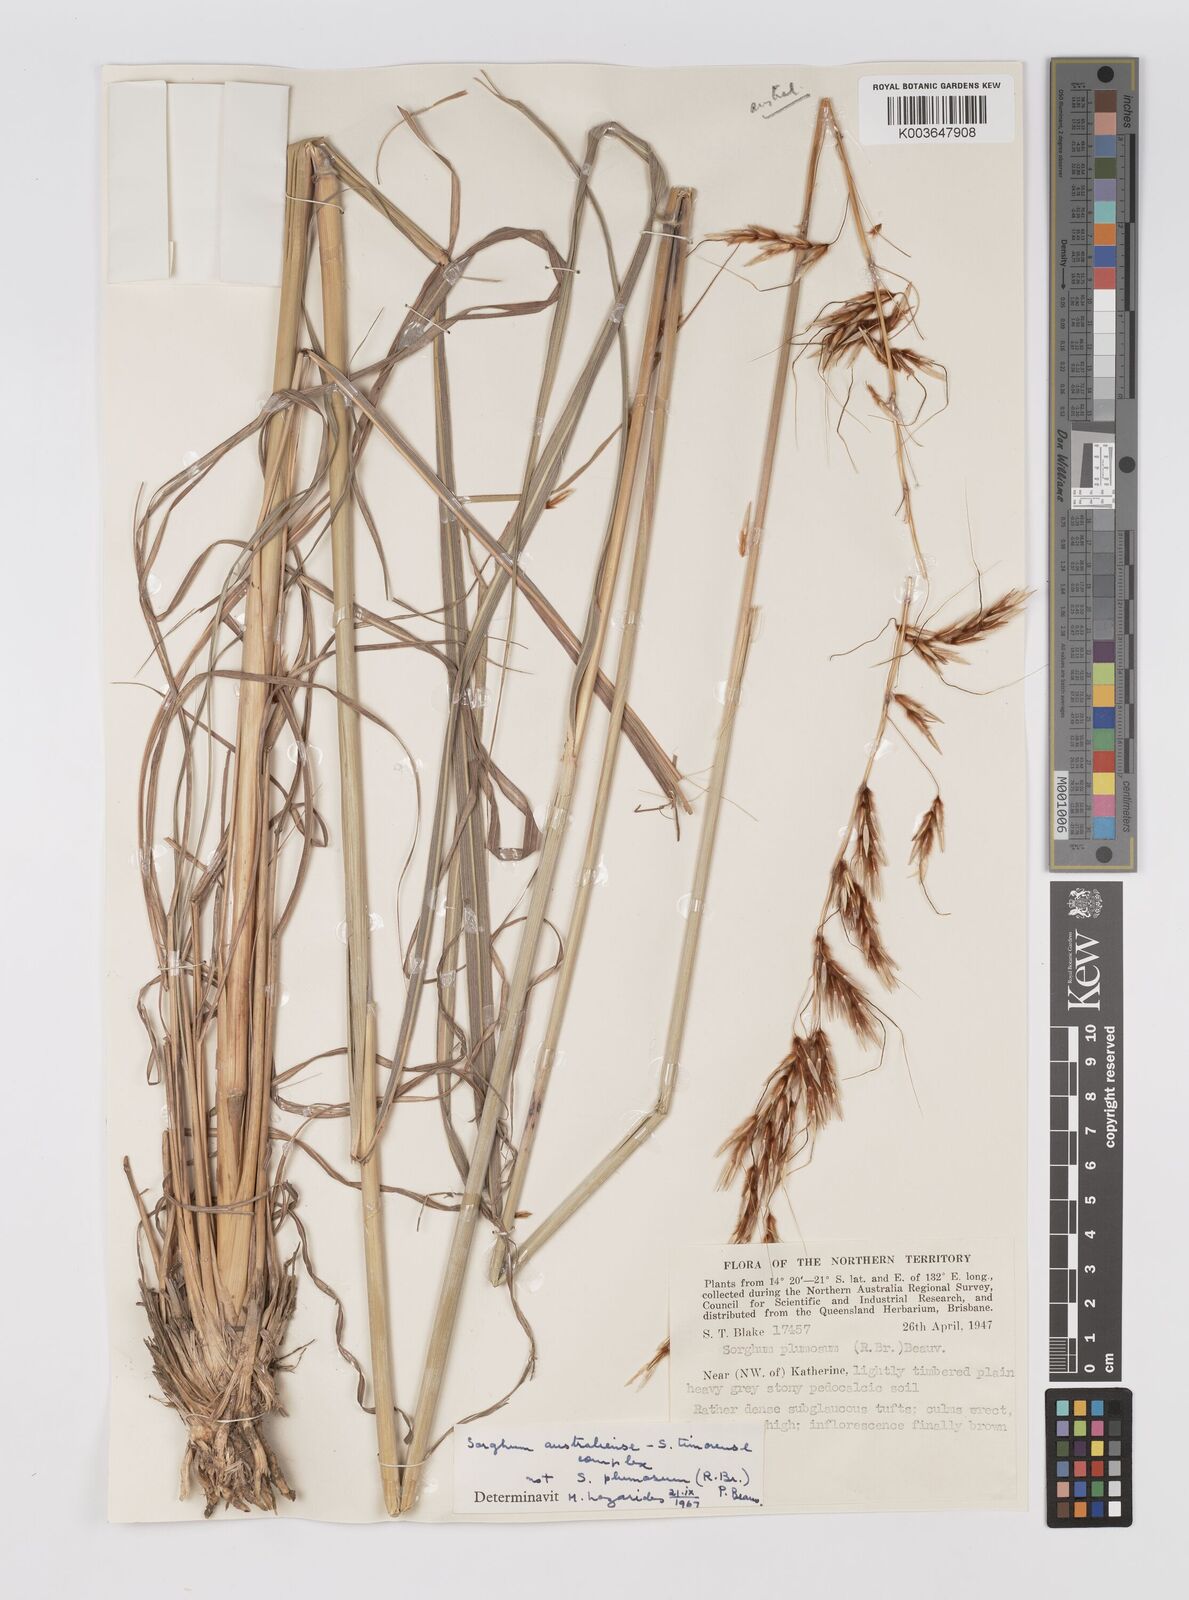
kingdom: Plantae
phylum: Tracheophyta
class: Liliopsida
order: Poales
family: Poaceae
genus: Sarga
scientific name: Sarga timorensis
